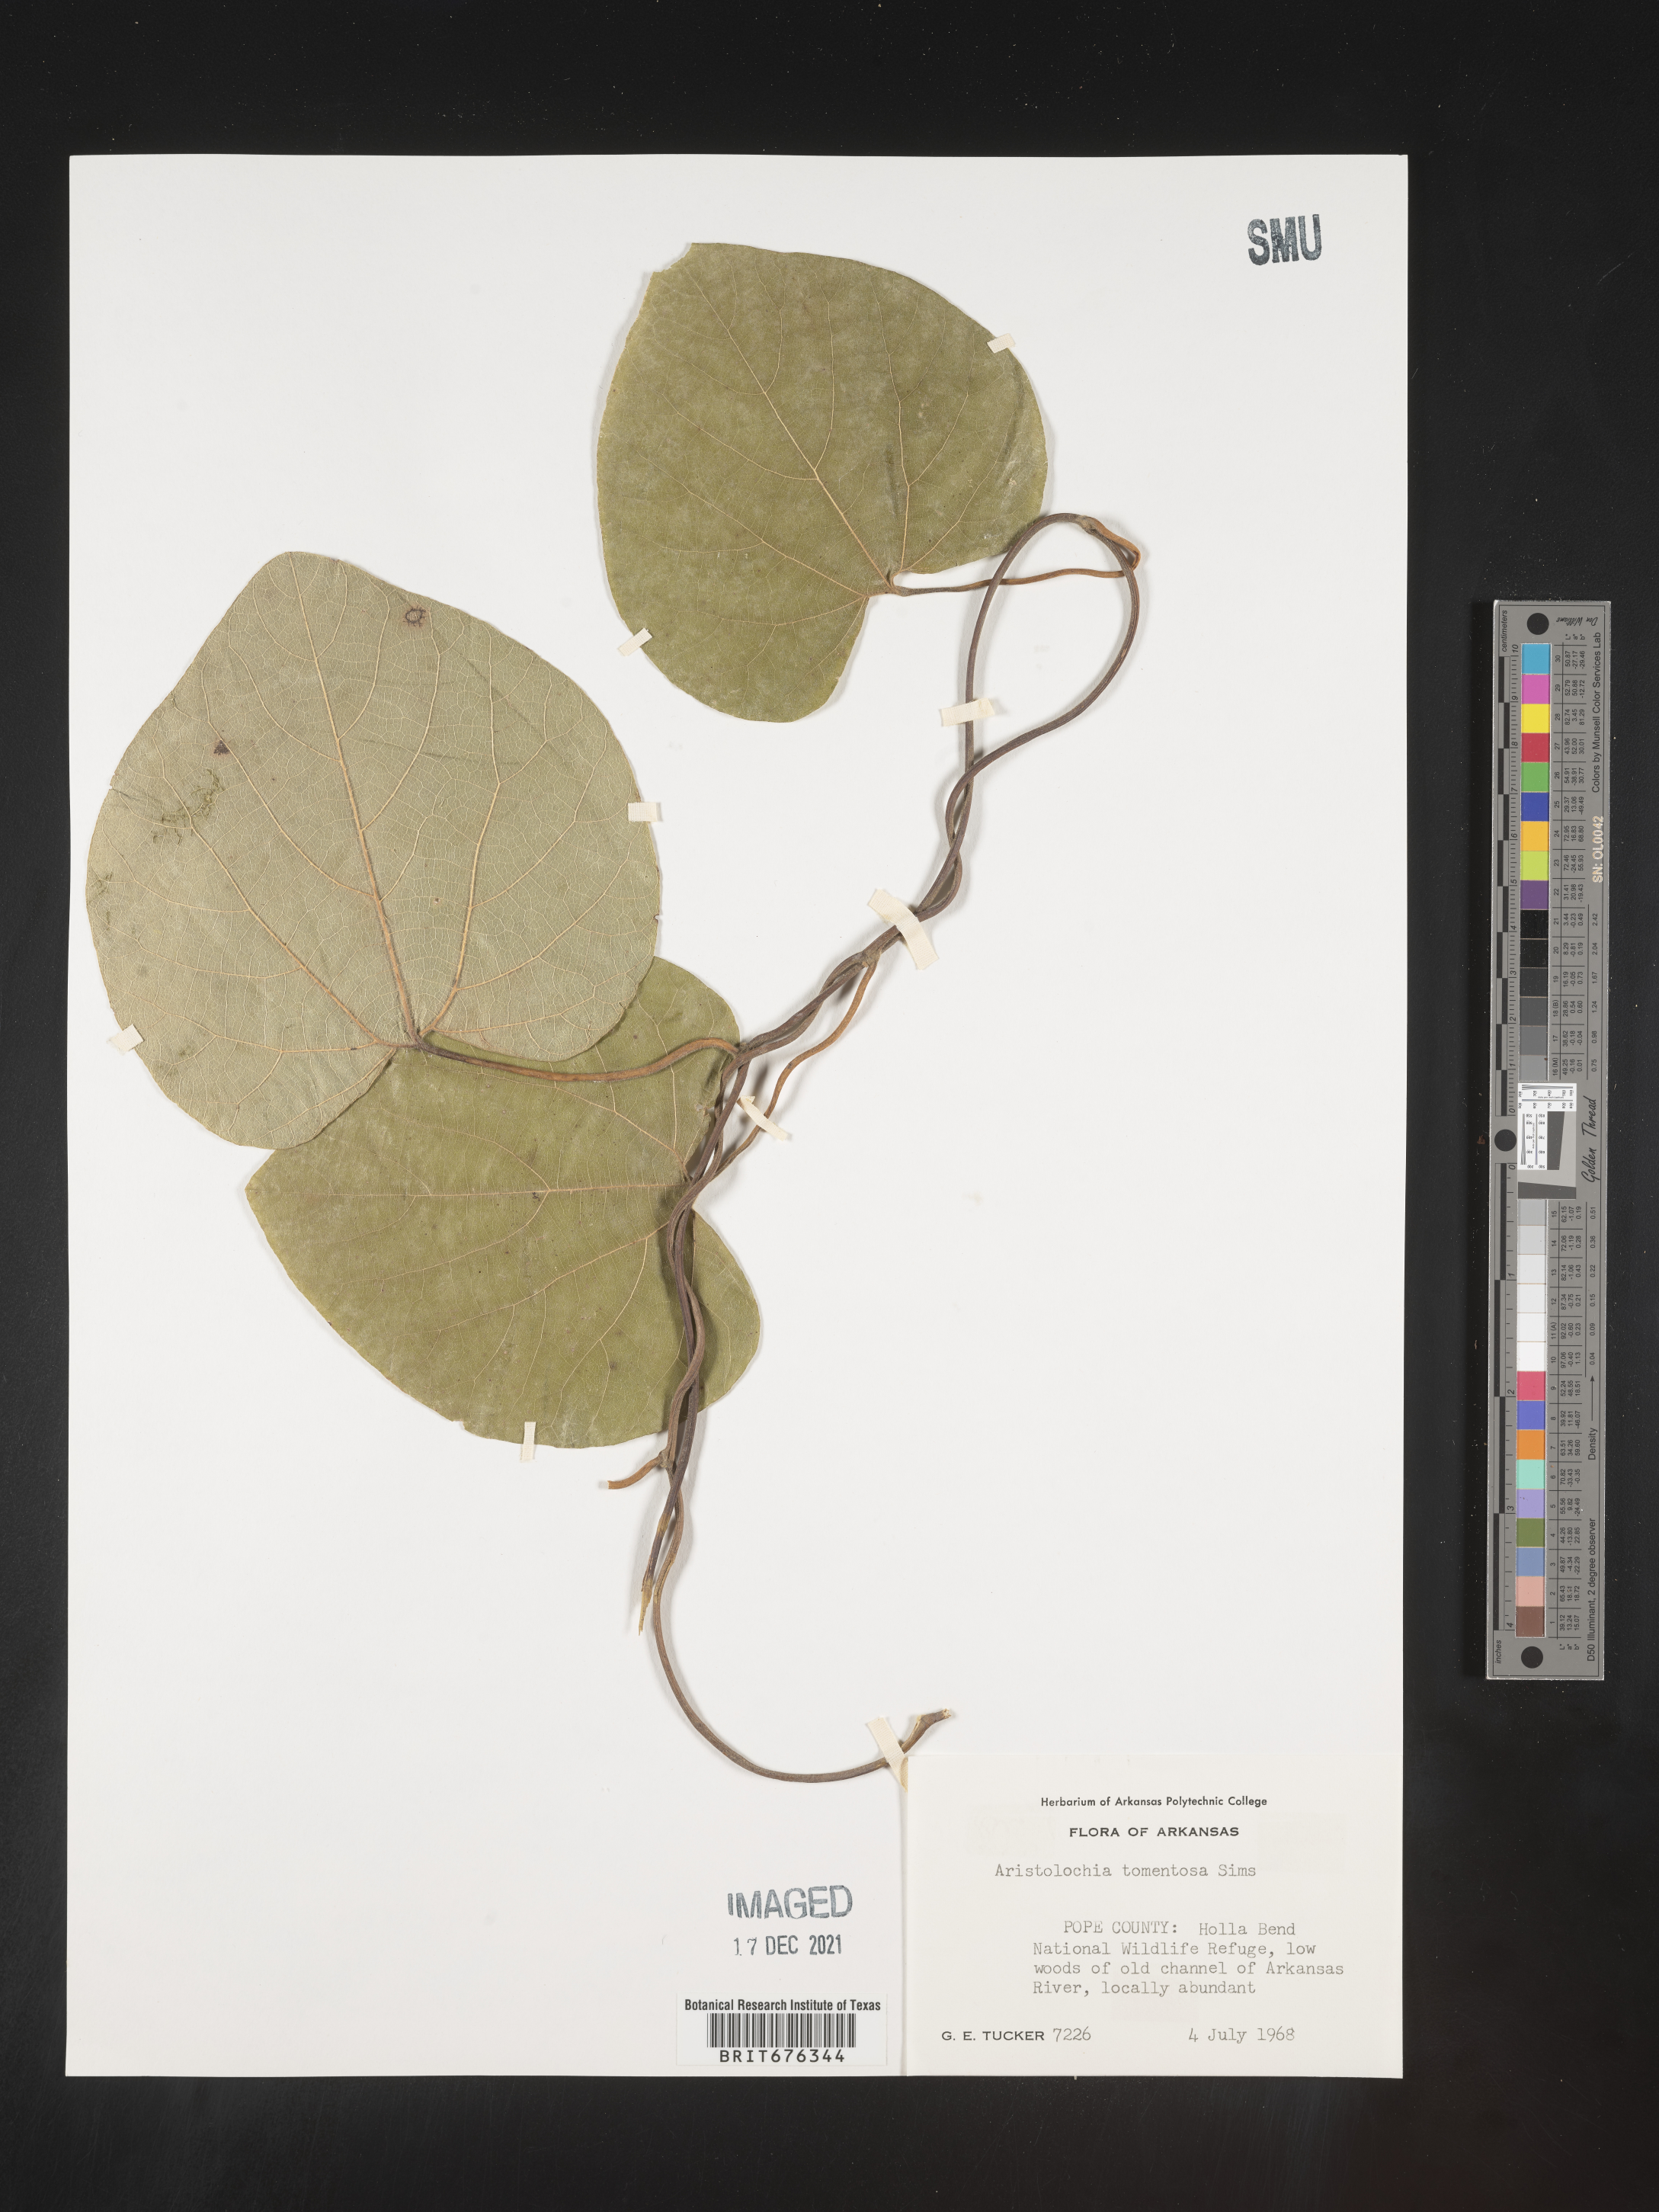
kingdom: Plantae
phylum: Tracheophyta
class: Magnoliopsida
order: Piperales
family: Aristolochiaceae
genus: Isotrema
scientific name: Isotrema tomentosum
